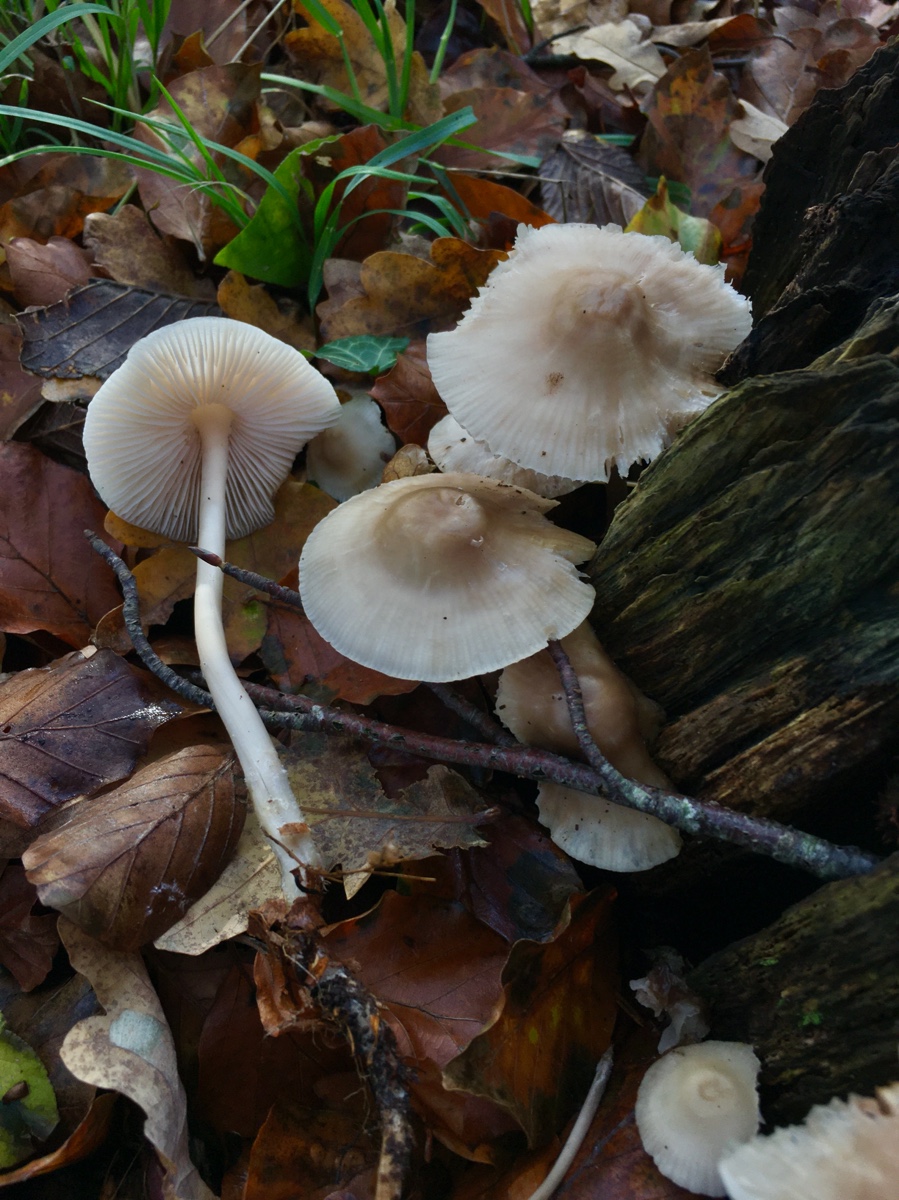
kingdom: Fungi
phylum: Basidiomycota
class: Agaricomycetes
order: Agaricales
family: Mycenaceae
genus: Mycena
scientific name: Mycena galericulata
